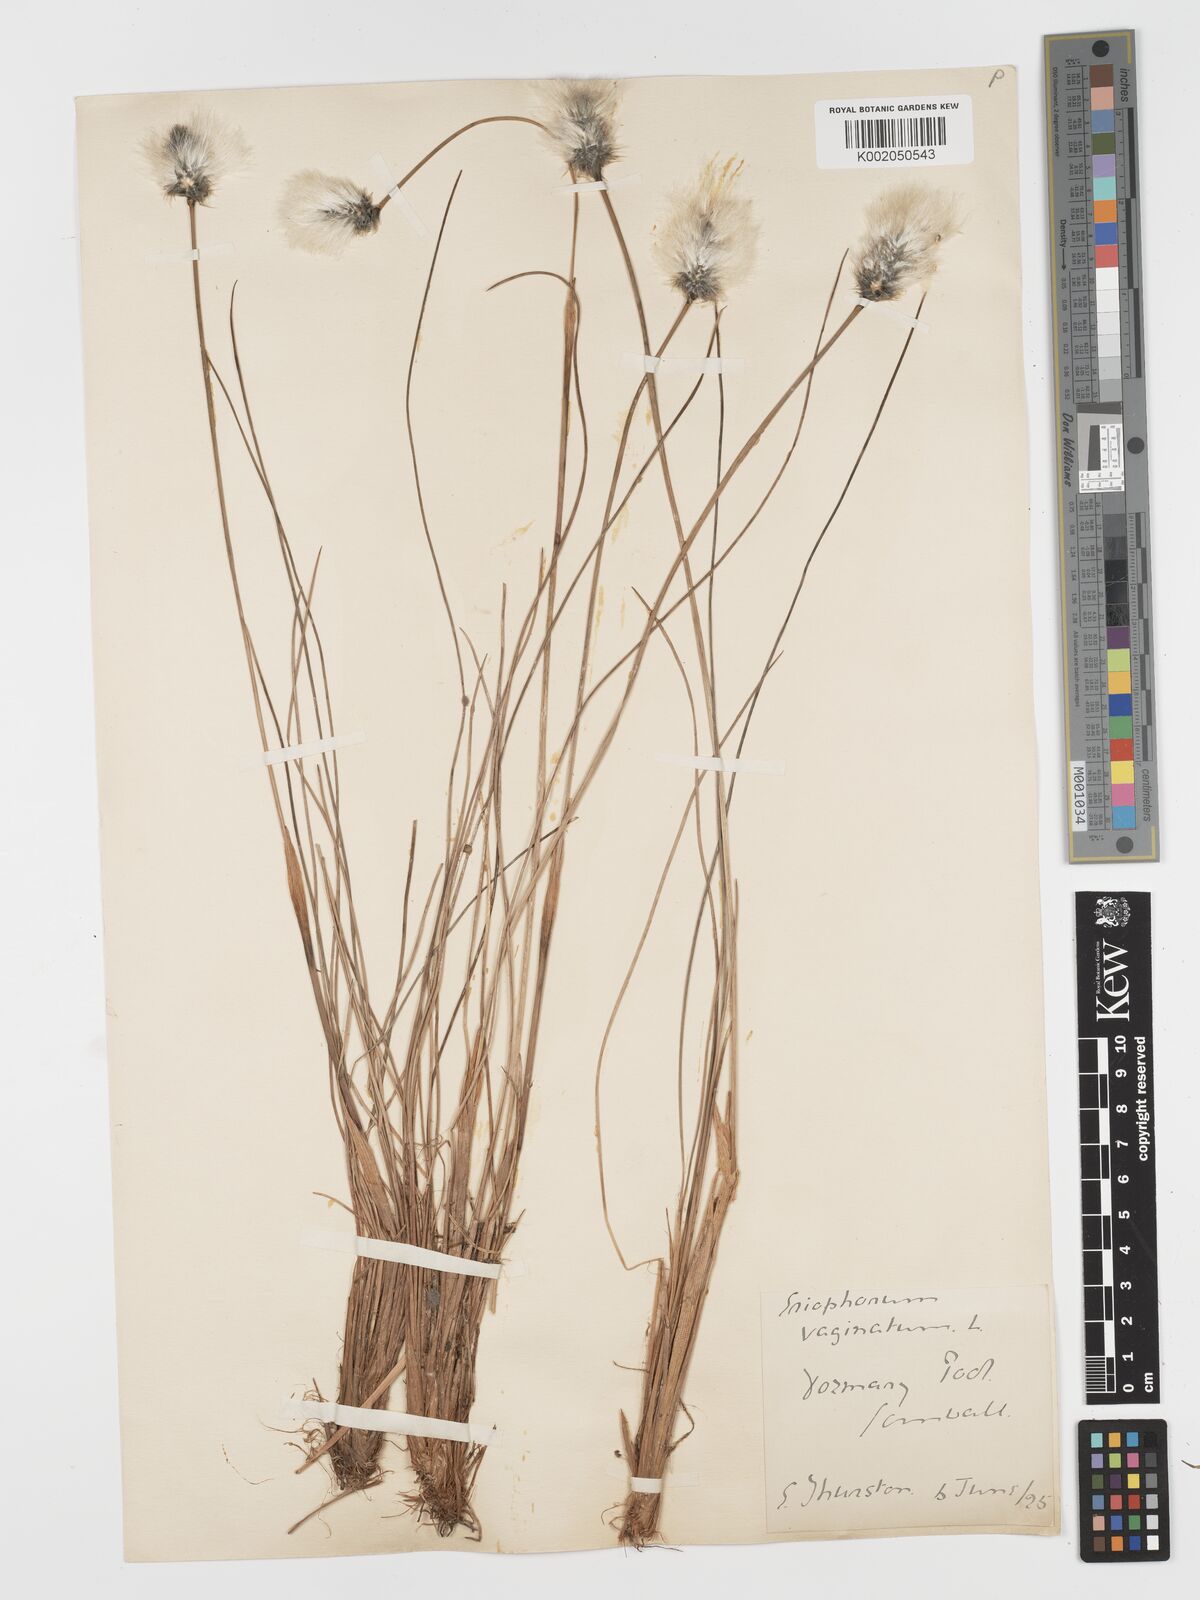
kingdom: Plantae
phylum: Tracheophyta
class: Liliopsida
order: Poales
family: Cyperaceae
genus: Eriophorum
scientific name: Eriophorum vaginatum
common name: Hare's-tail cottongrass
